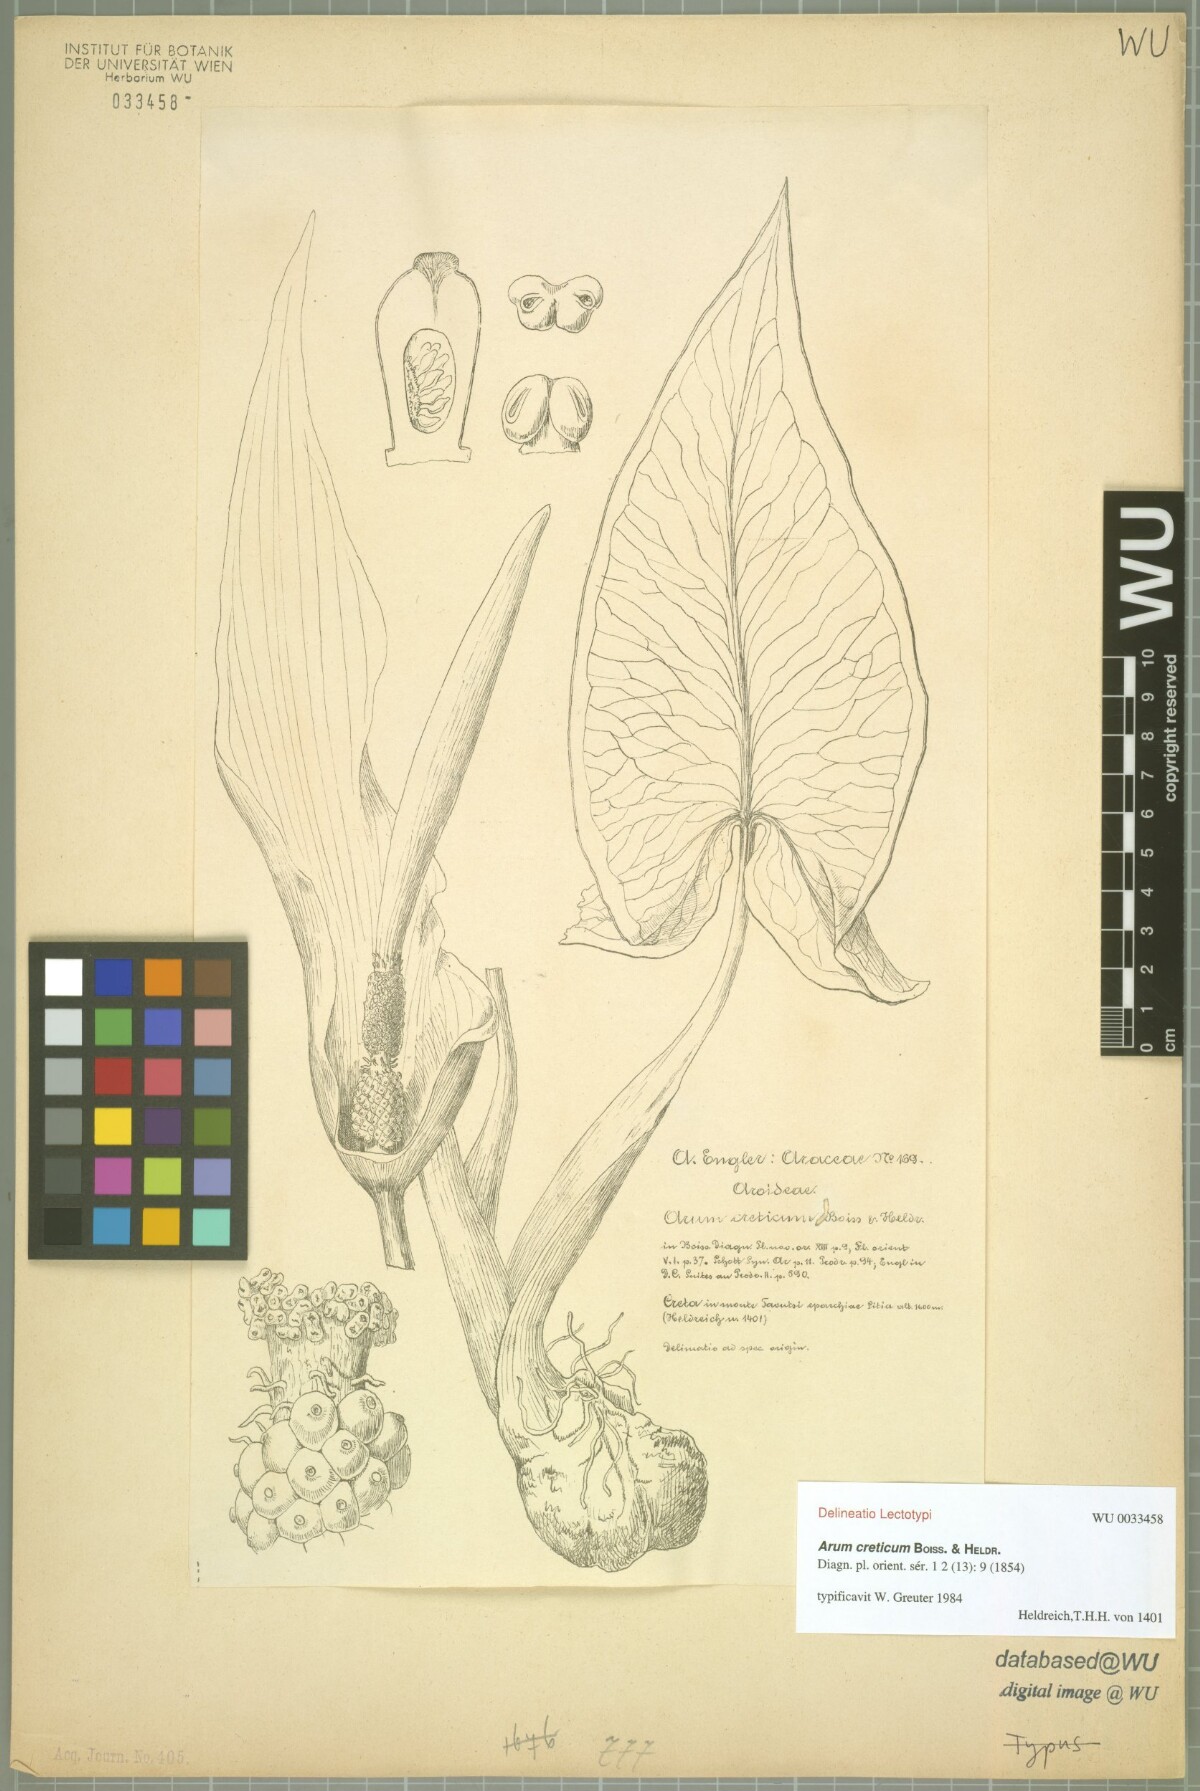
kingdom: Plantae
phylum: Tracheophyta
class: Liliopsida
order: Alismatales
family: Araceae
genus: Arum
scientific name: Arum creticum
